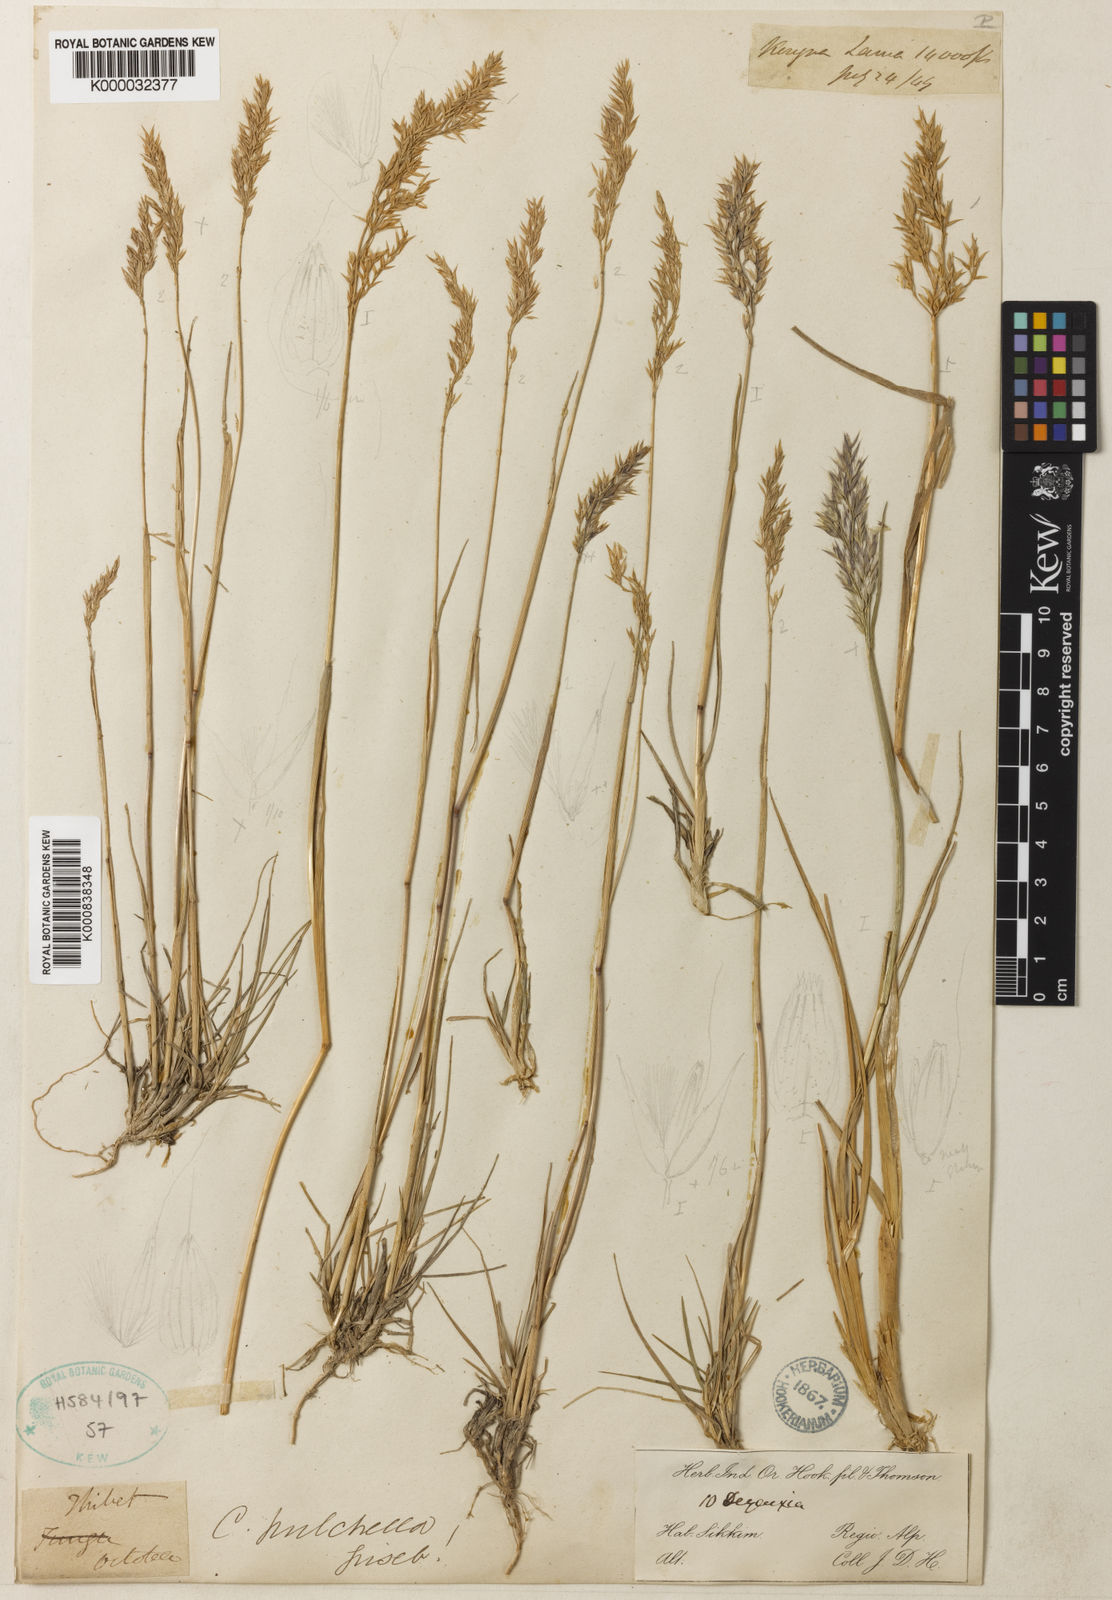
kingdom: Plantae
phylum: Tracheophyta
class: Liliopsida
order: Poales
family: Poaceae
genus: Calamagrostis
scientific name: Calamagrostis lahulensis
